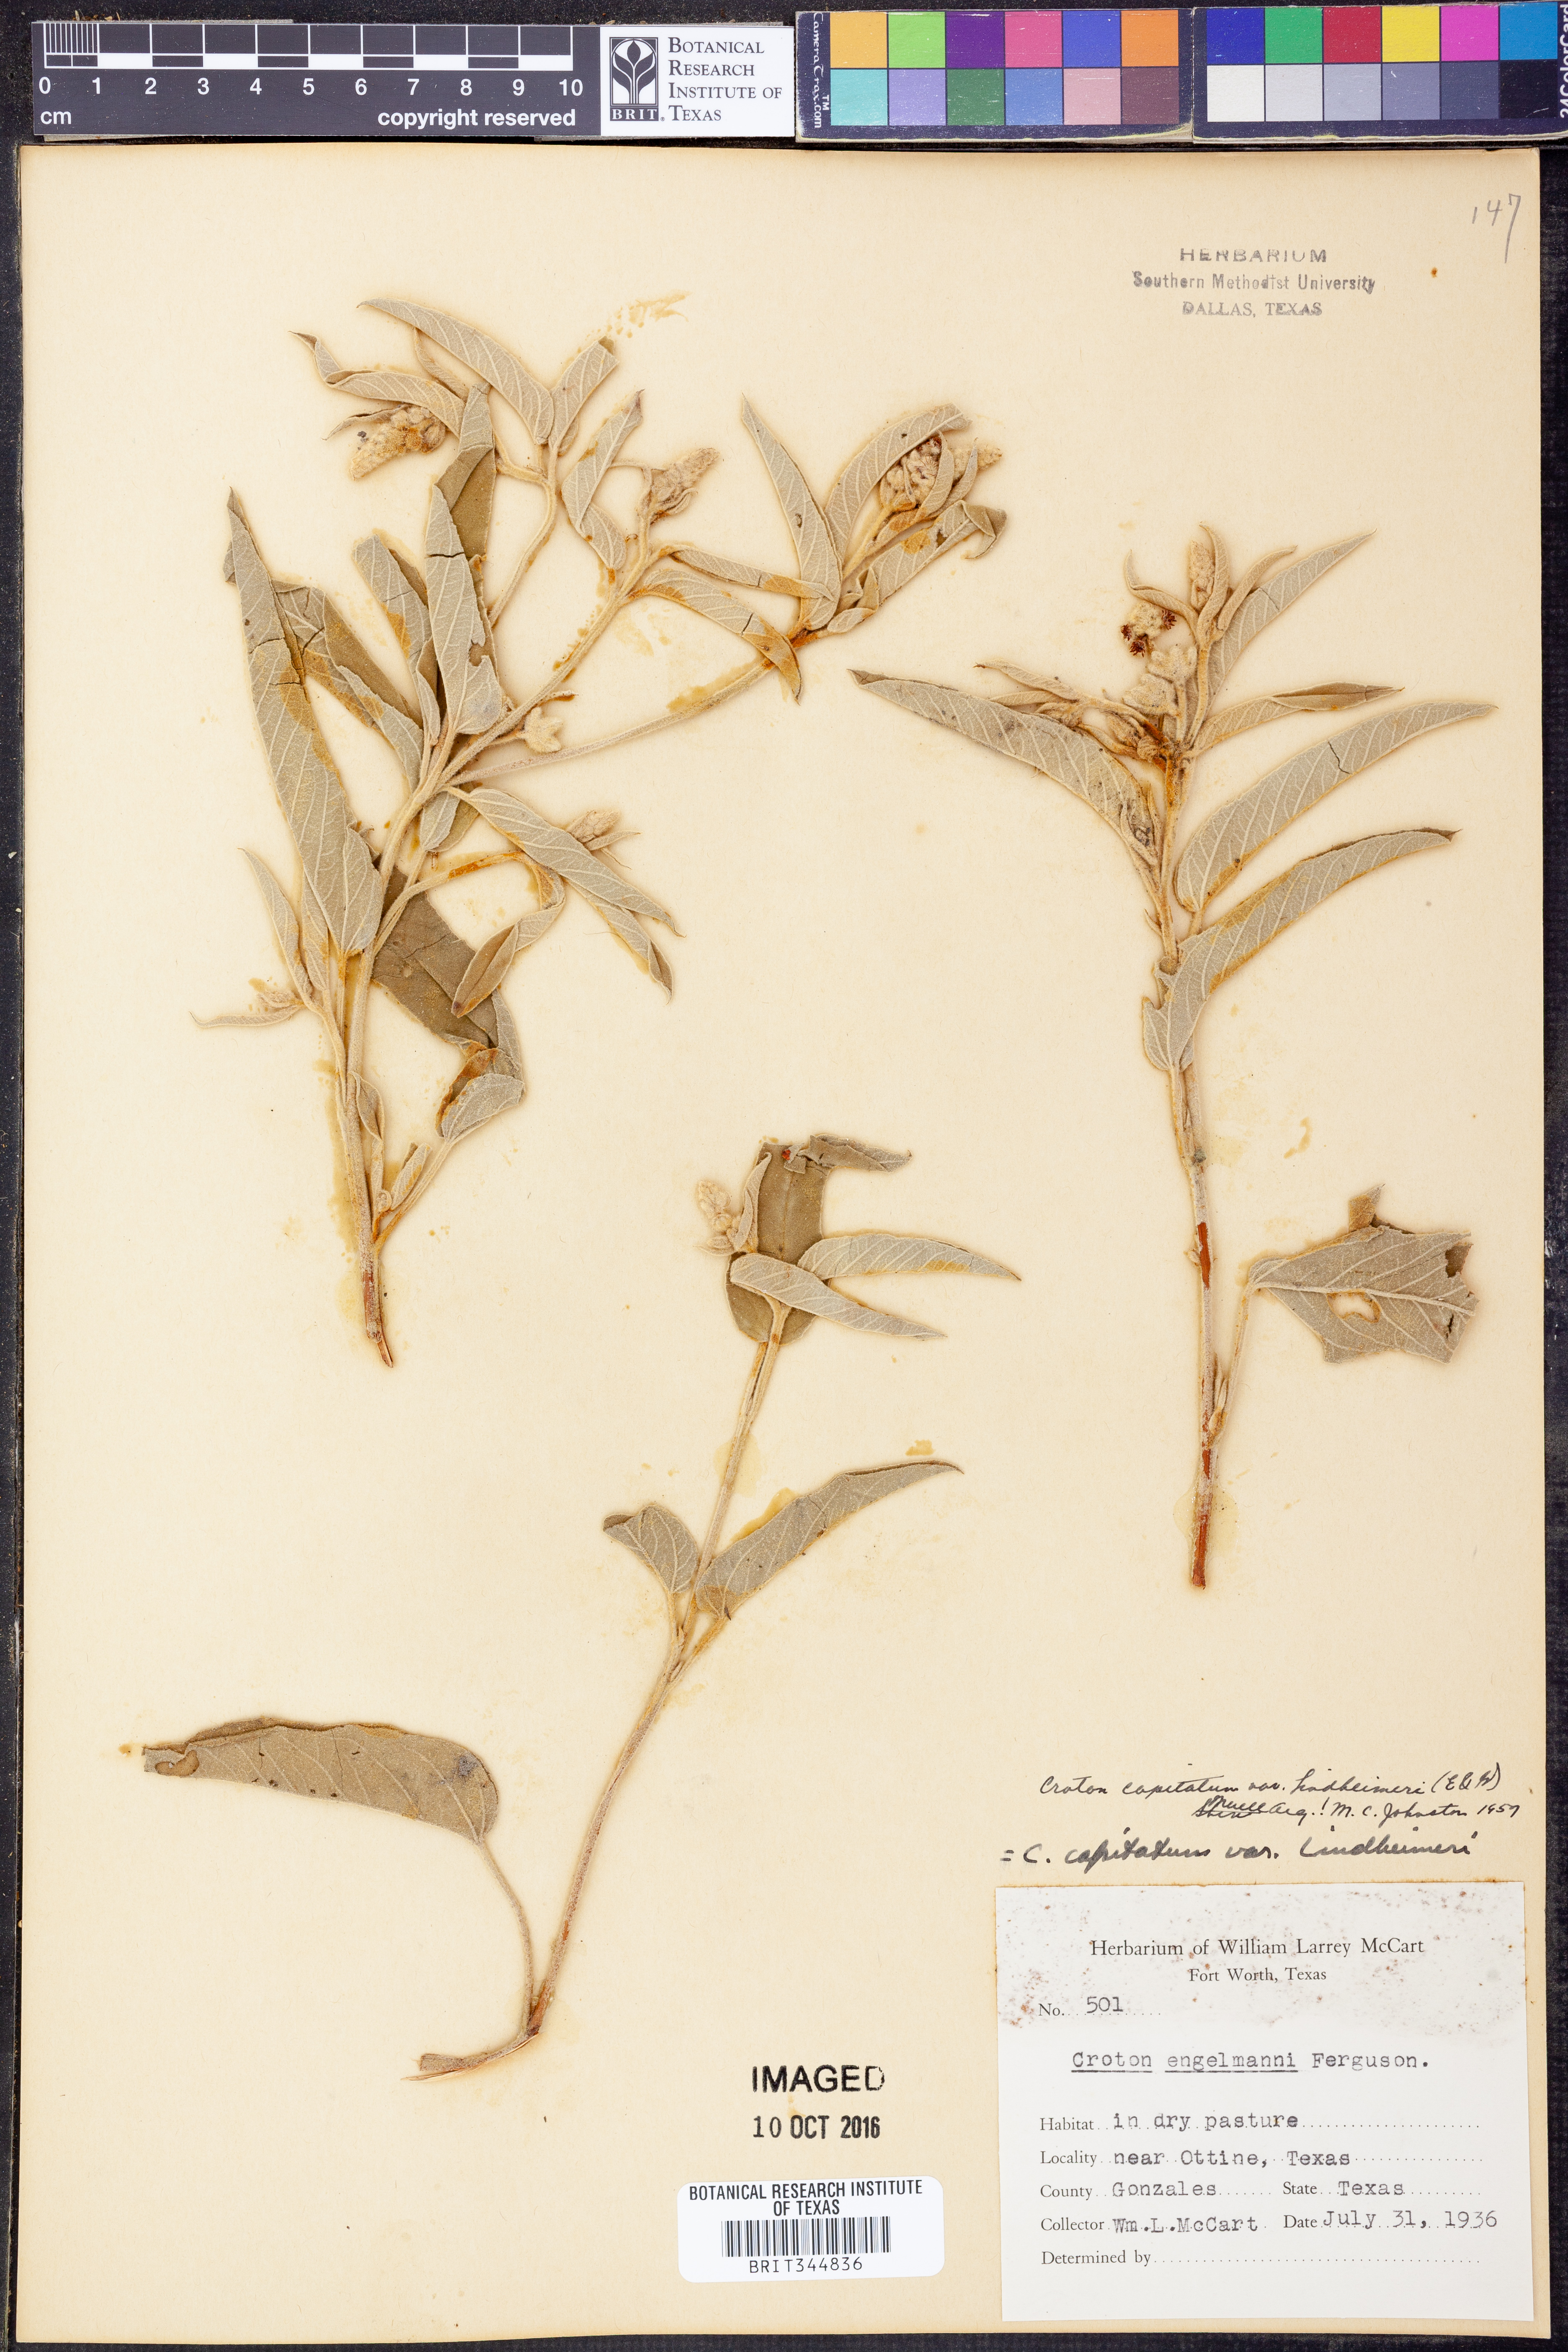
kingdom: Plantae
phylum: Tracheophyta
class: Magnoliopsida
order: Malpighiales
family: Euphorbiaceae
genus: Croton
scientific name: Croton lindheimeri
